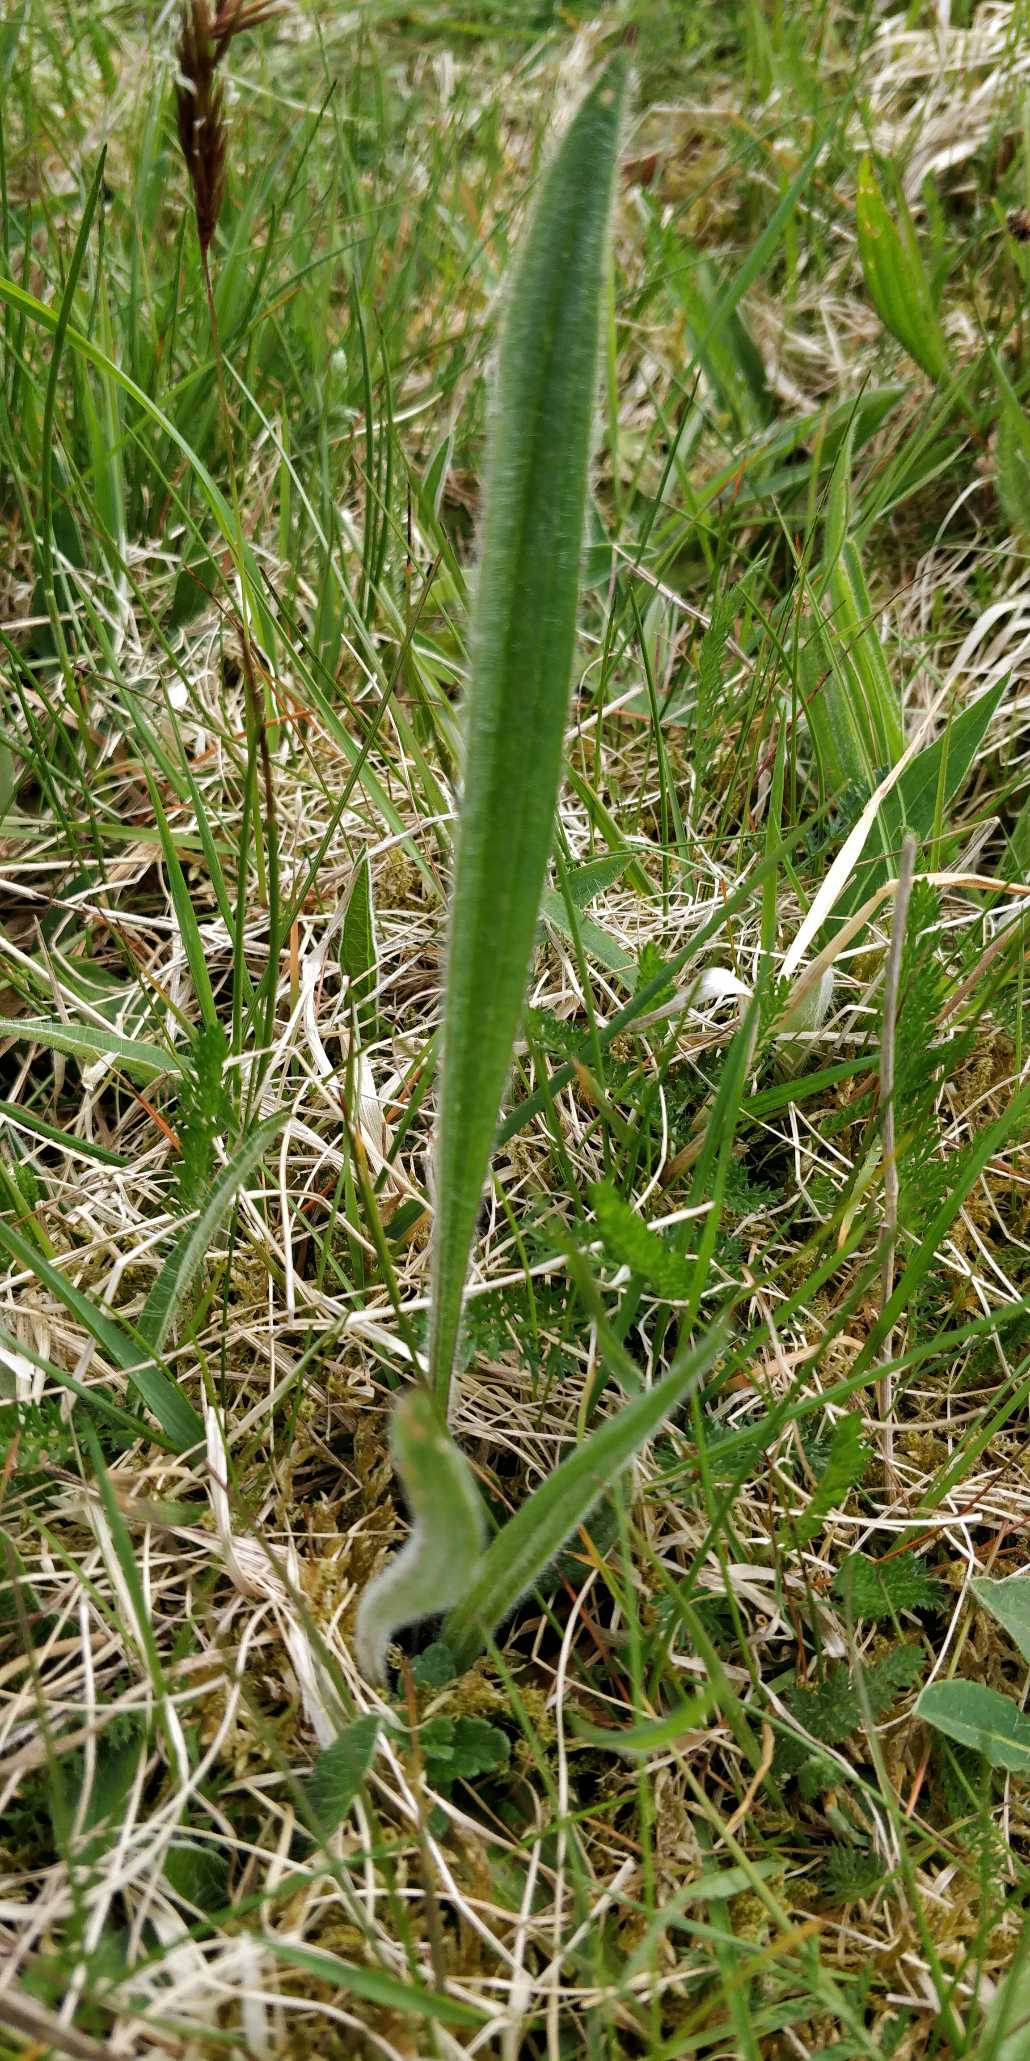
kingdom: Plantae
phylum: Tracheophyta
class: Magnoliopsida
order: Lamiales
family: Plantaginaceae
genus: Plantago
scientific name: Plantago lanceolata
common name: Lancet-vejbred
